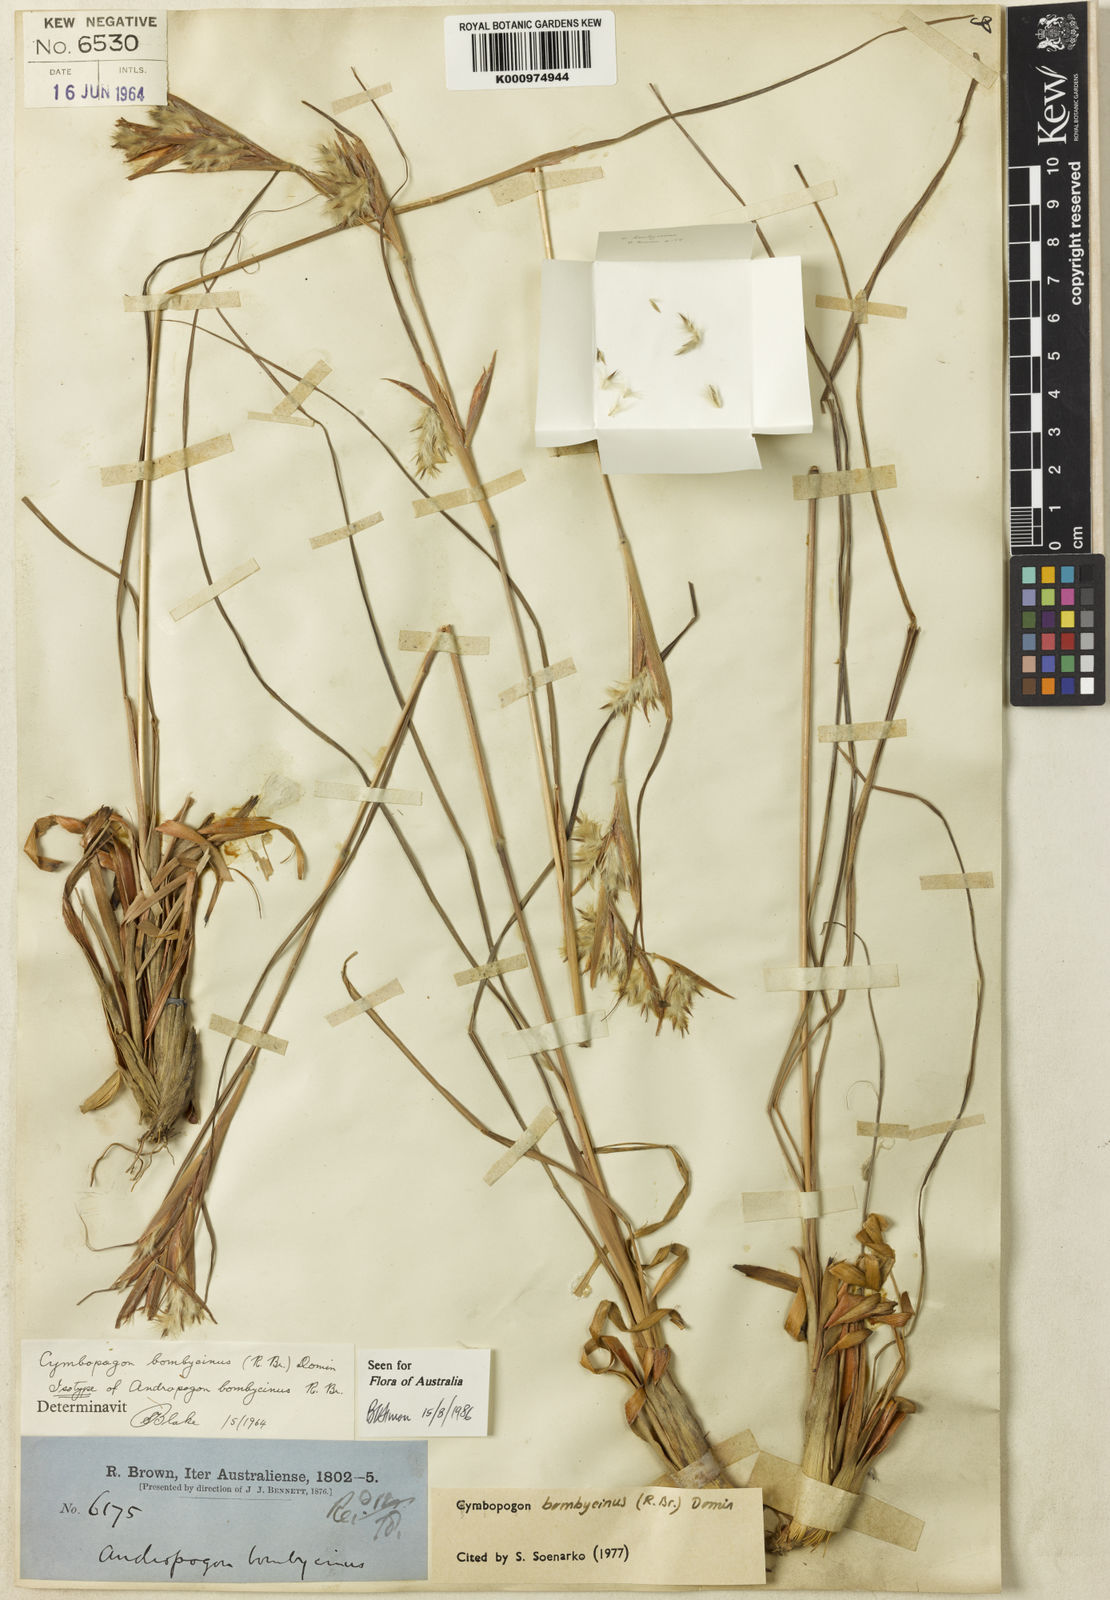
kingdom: Plantae
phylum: Tracheophyta
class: Liliopsida
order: Poales
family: Poaceae
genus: Cymbopogon
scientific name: Cymbopogon bombycinus
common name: Citronella grass
